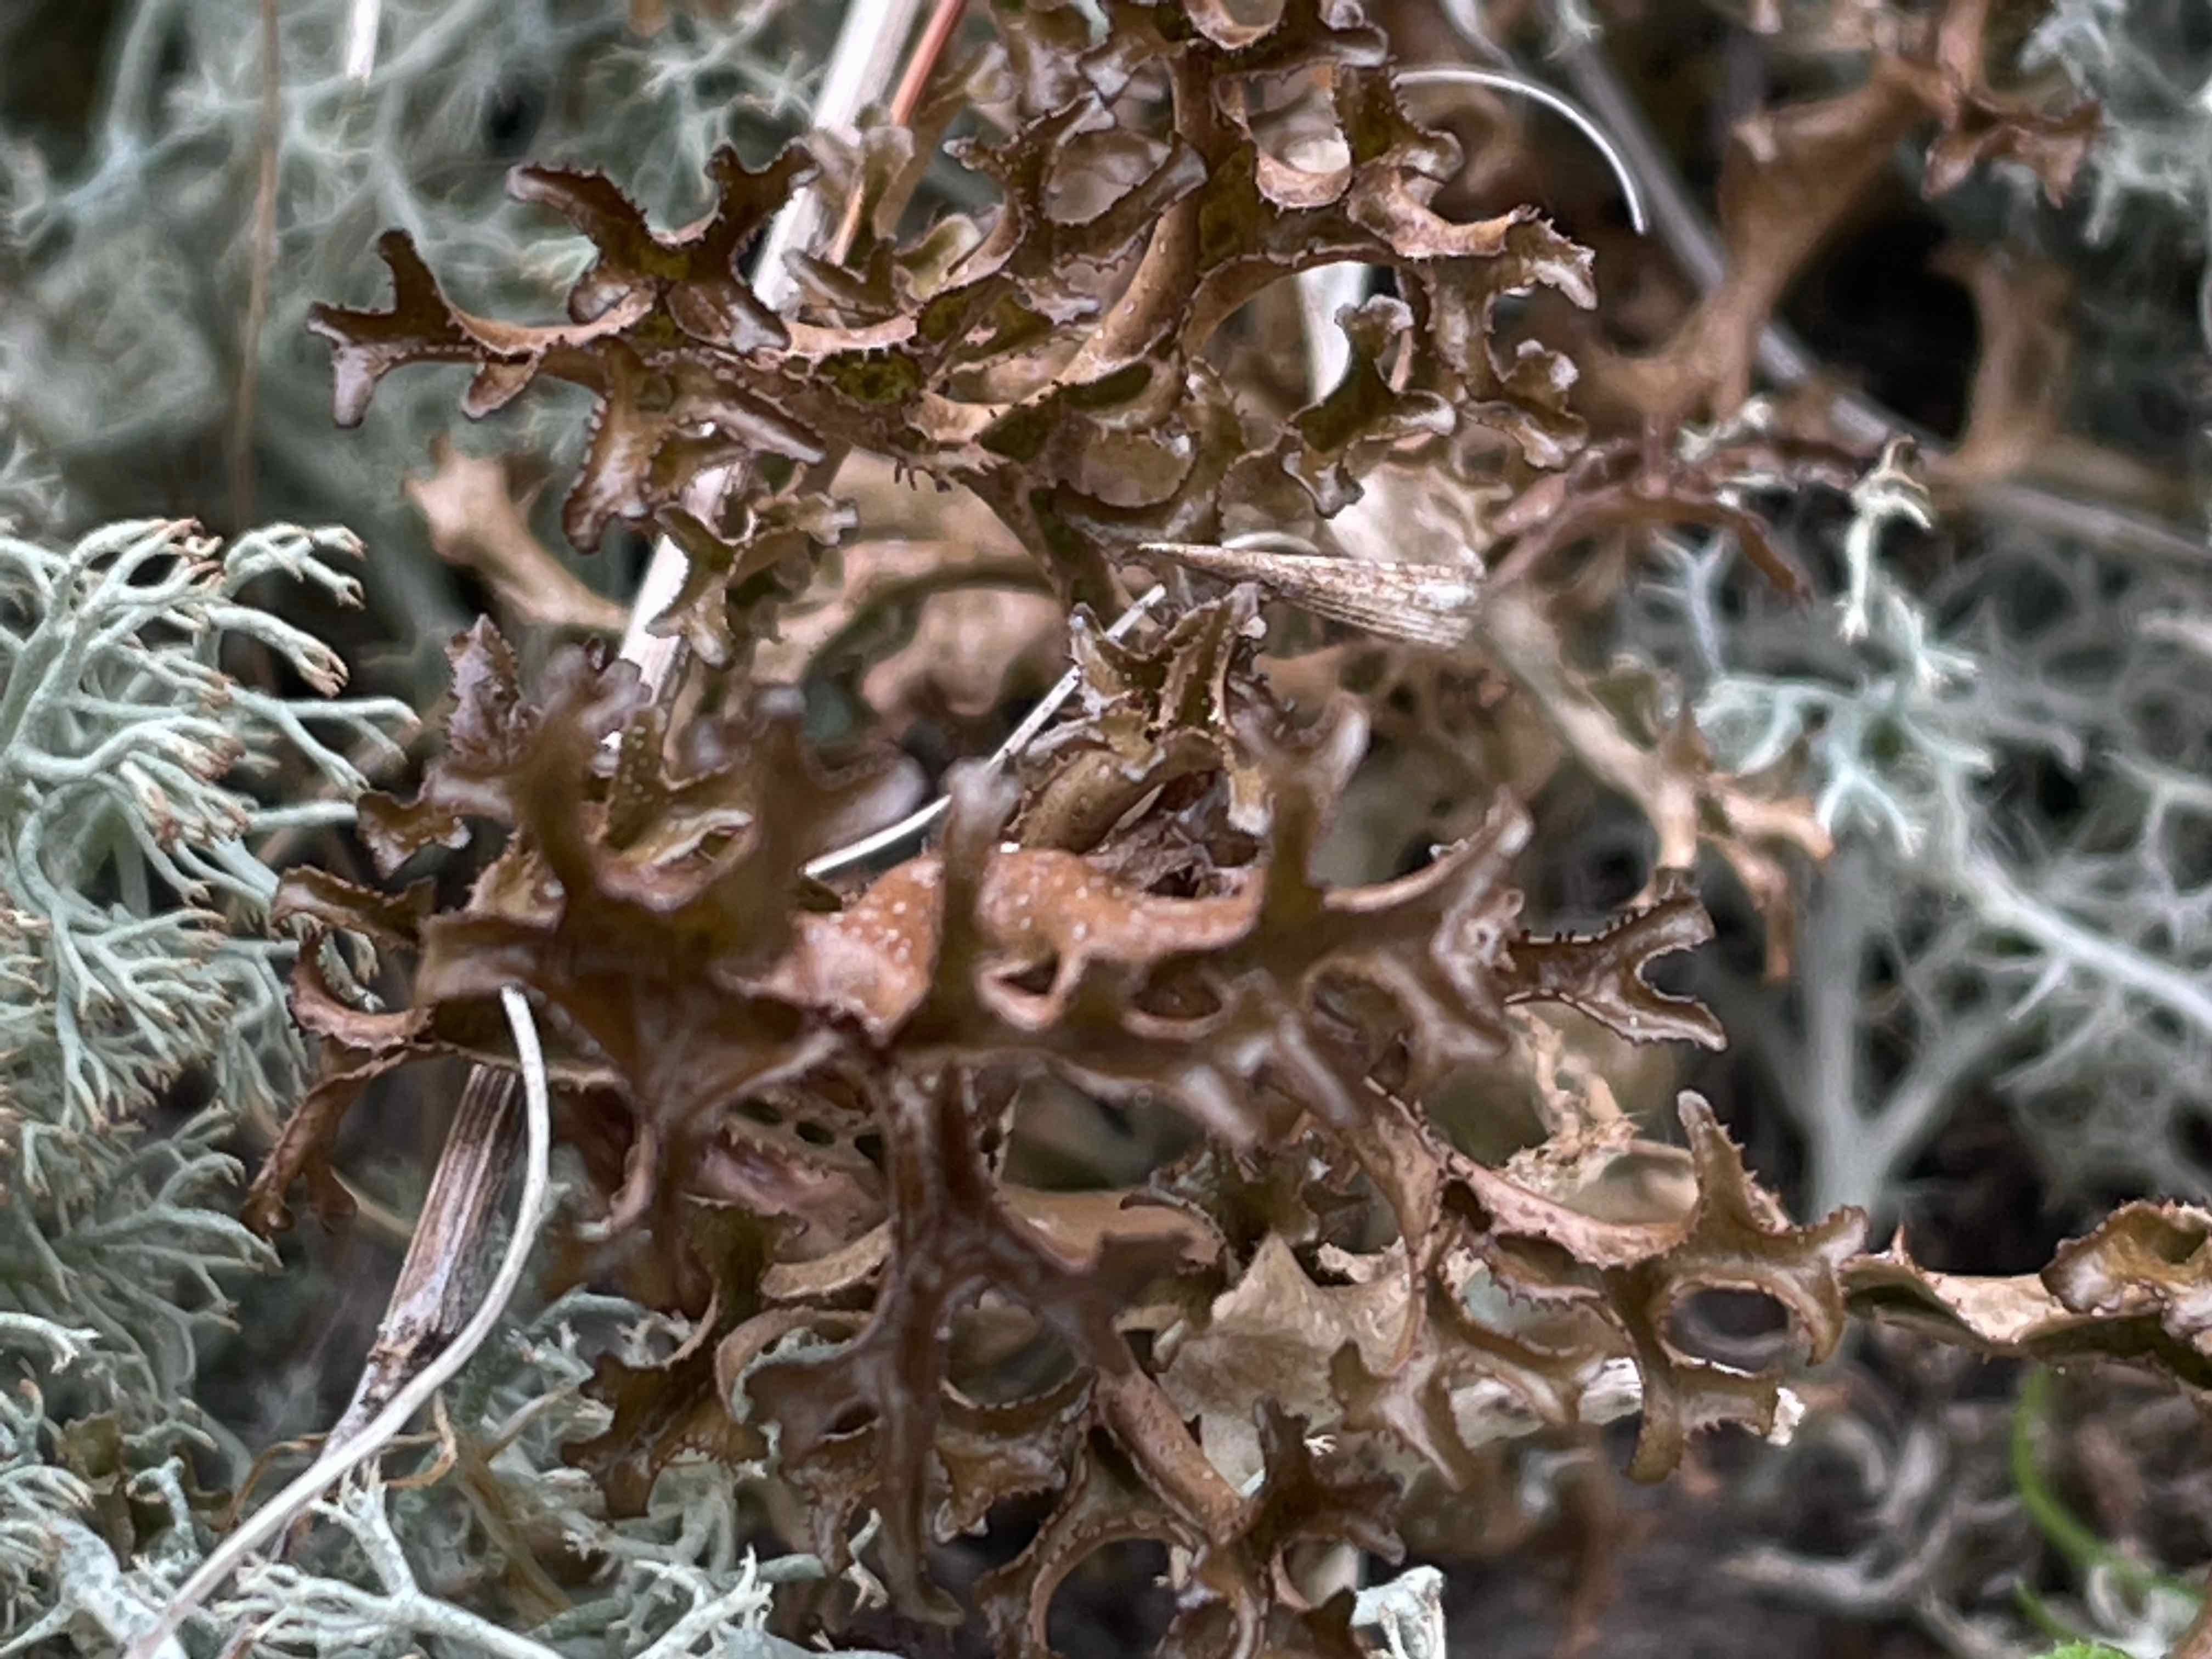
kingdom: Fungi
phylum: Ascomycota
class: Lecanoromycetes
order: Lecanorales
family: Parmeliaceae
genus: Cetraria
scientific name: Cetraria islandica
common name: islandsk kruslav
